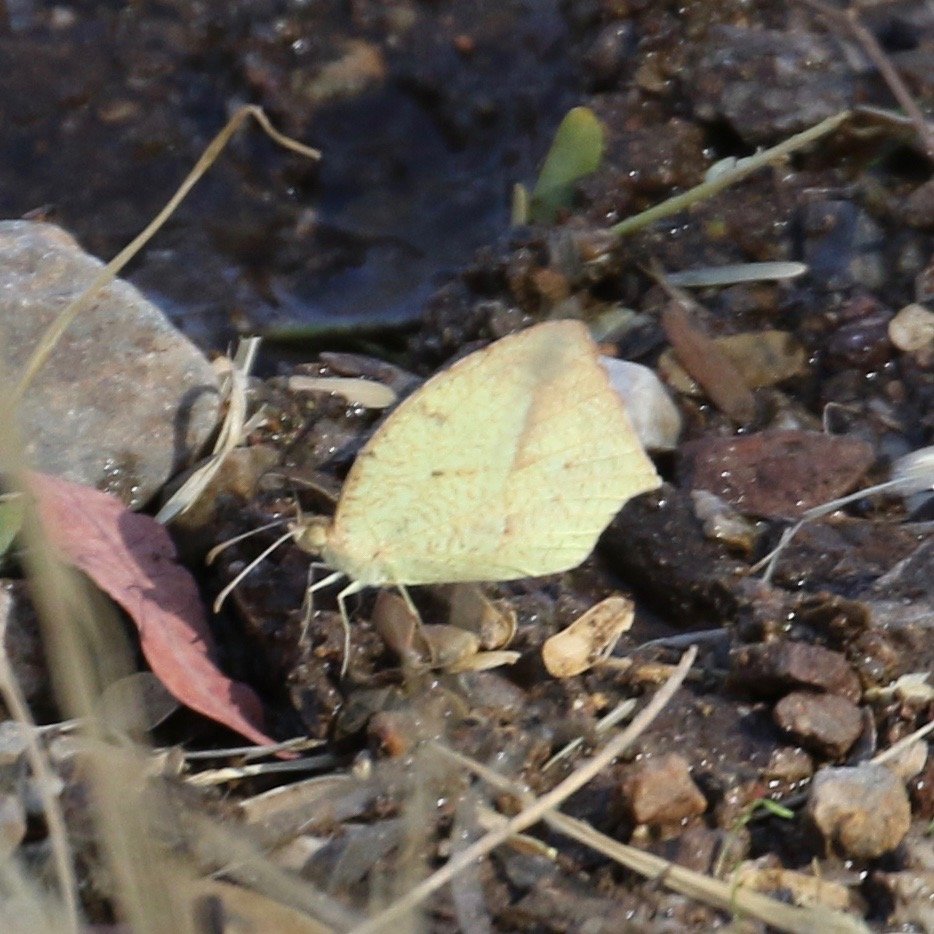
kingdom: Animalia
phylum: Arthropoda
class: Insecta
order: Lepidoptera
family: Pieridae
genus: Eurema
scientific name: Eurema mexicana
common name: Mexican Yellow
